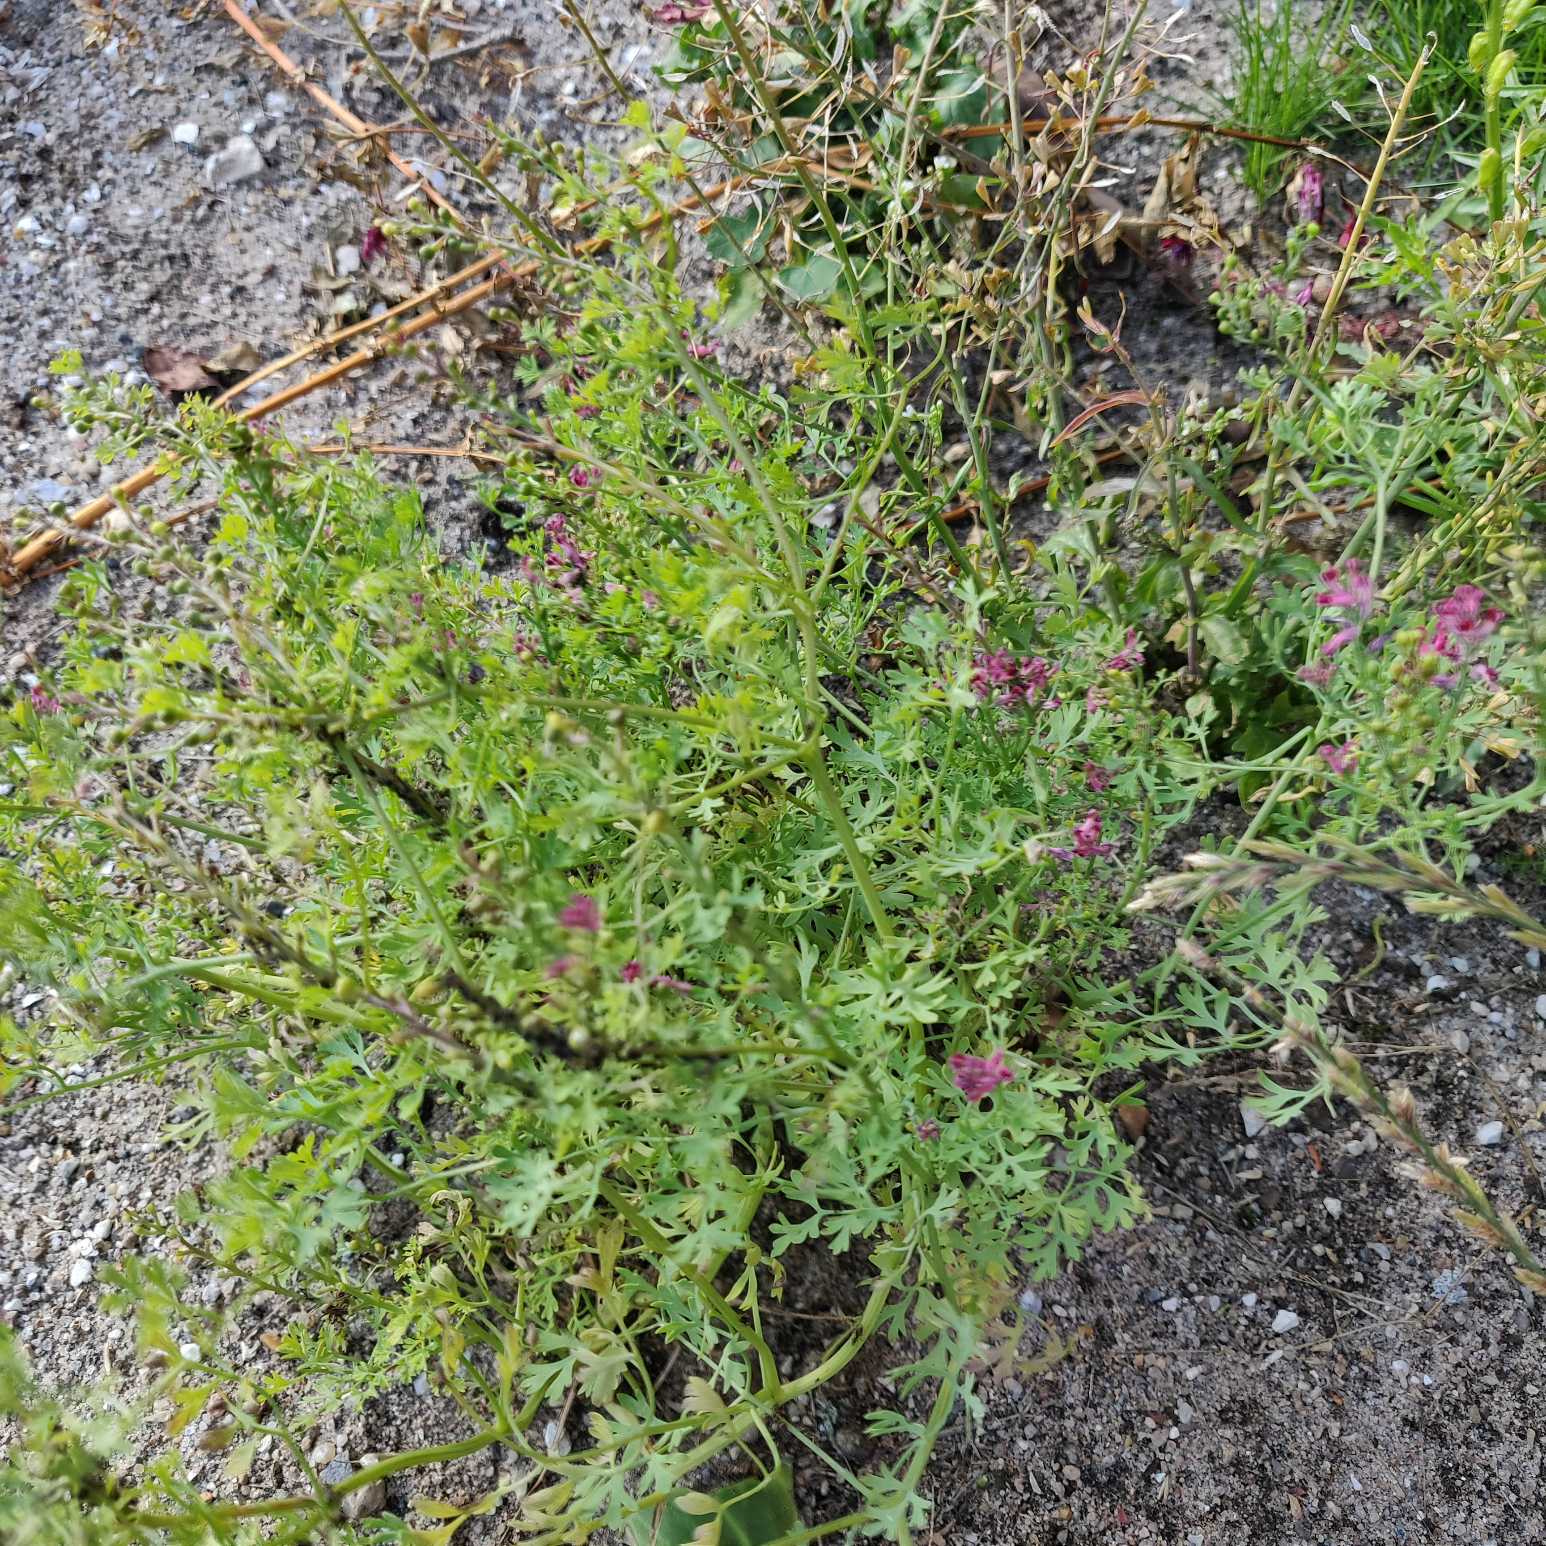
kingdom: Plantae
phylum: Tracheophyta
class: Magnoliopsida
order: Ranunculales
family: Papaveraceae
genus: Fumaria
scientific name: Fumaria officinalis
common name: Læge-jordrøg
